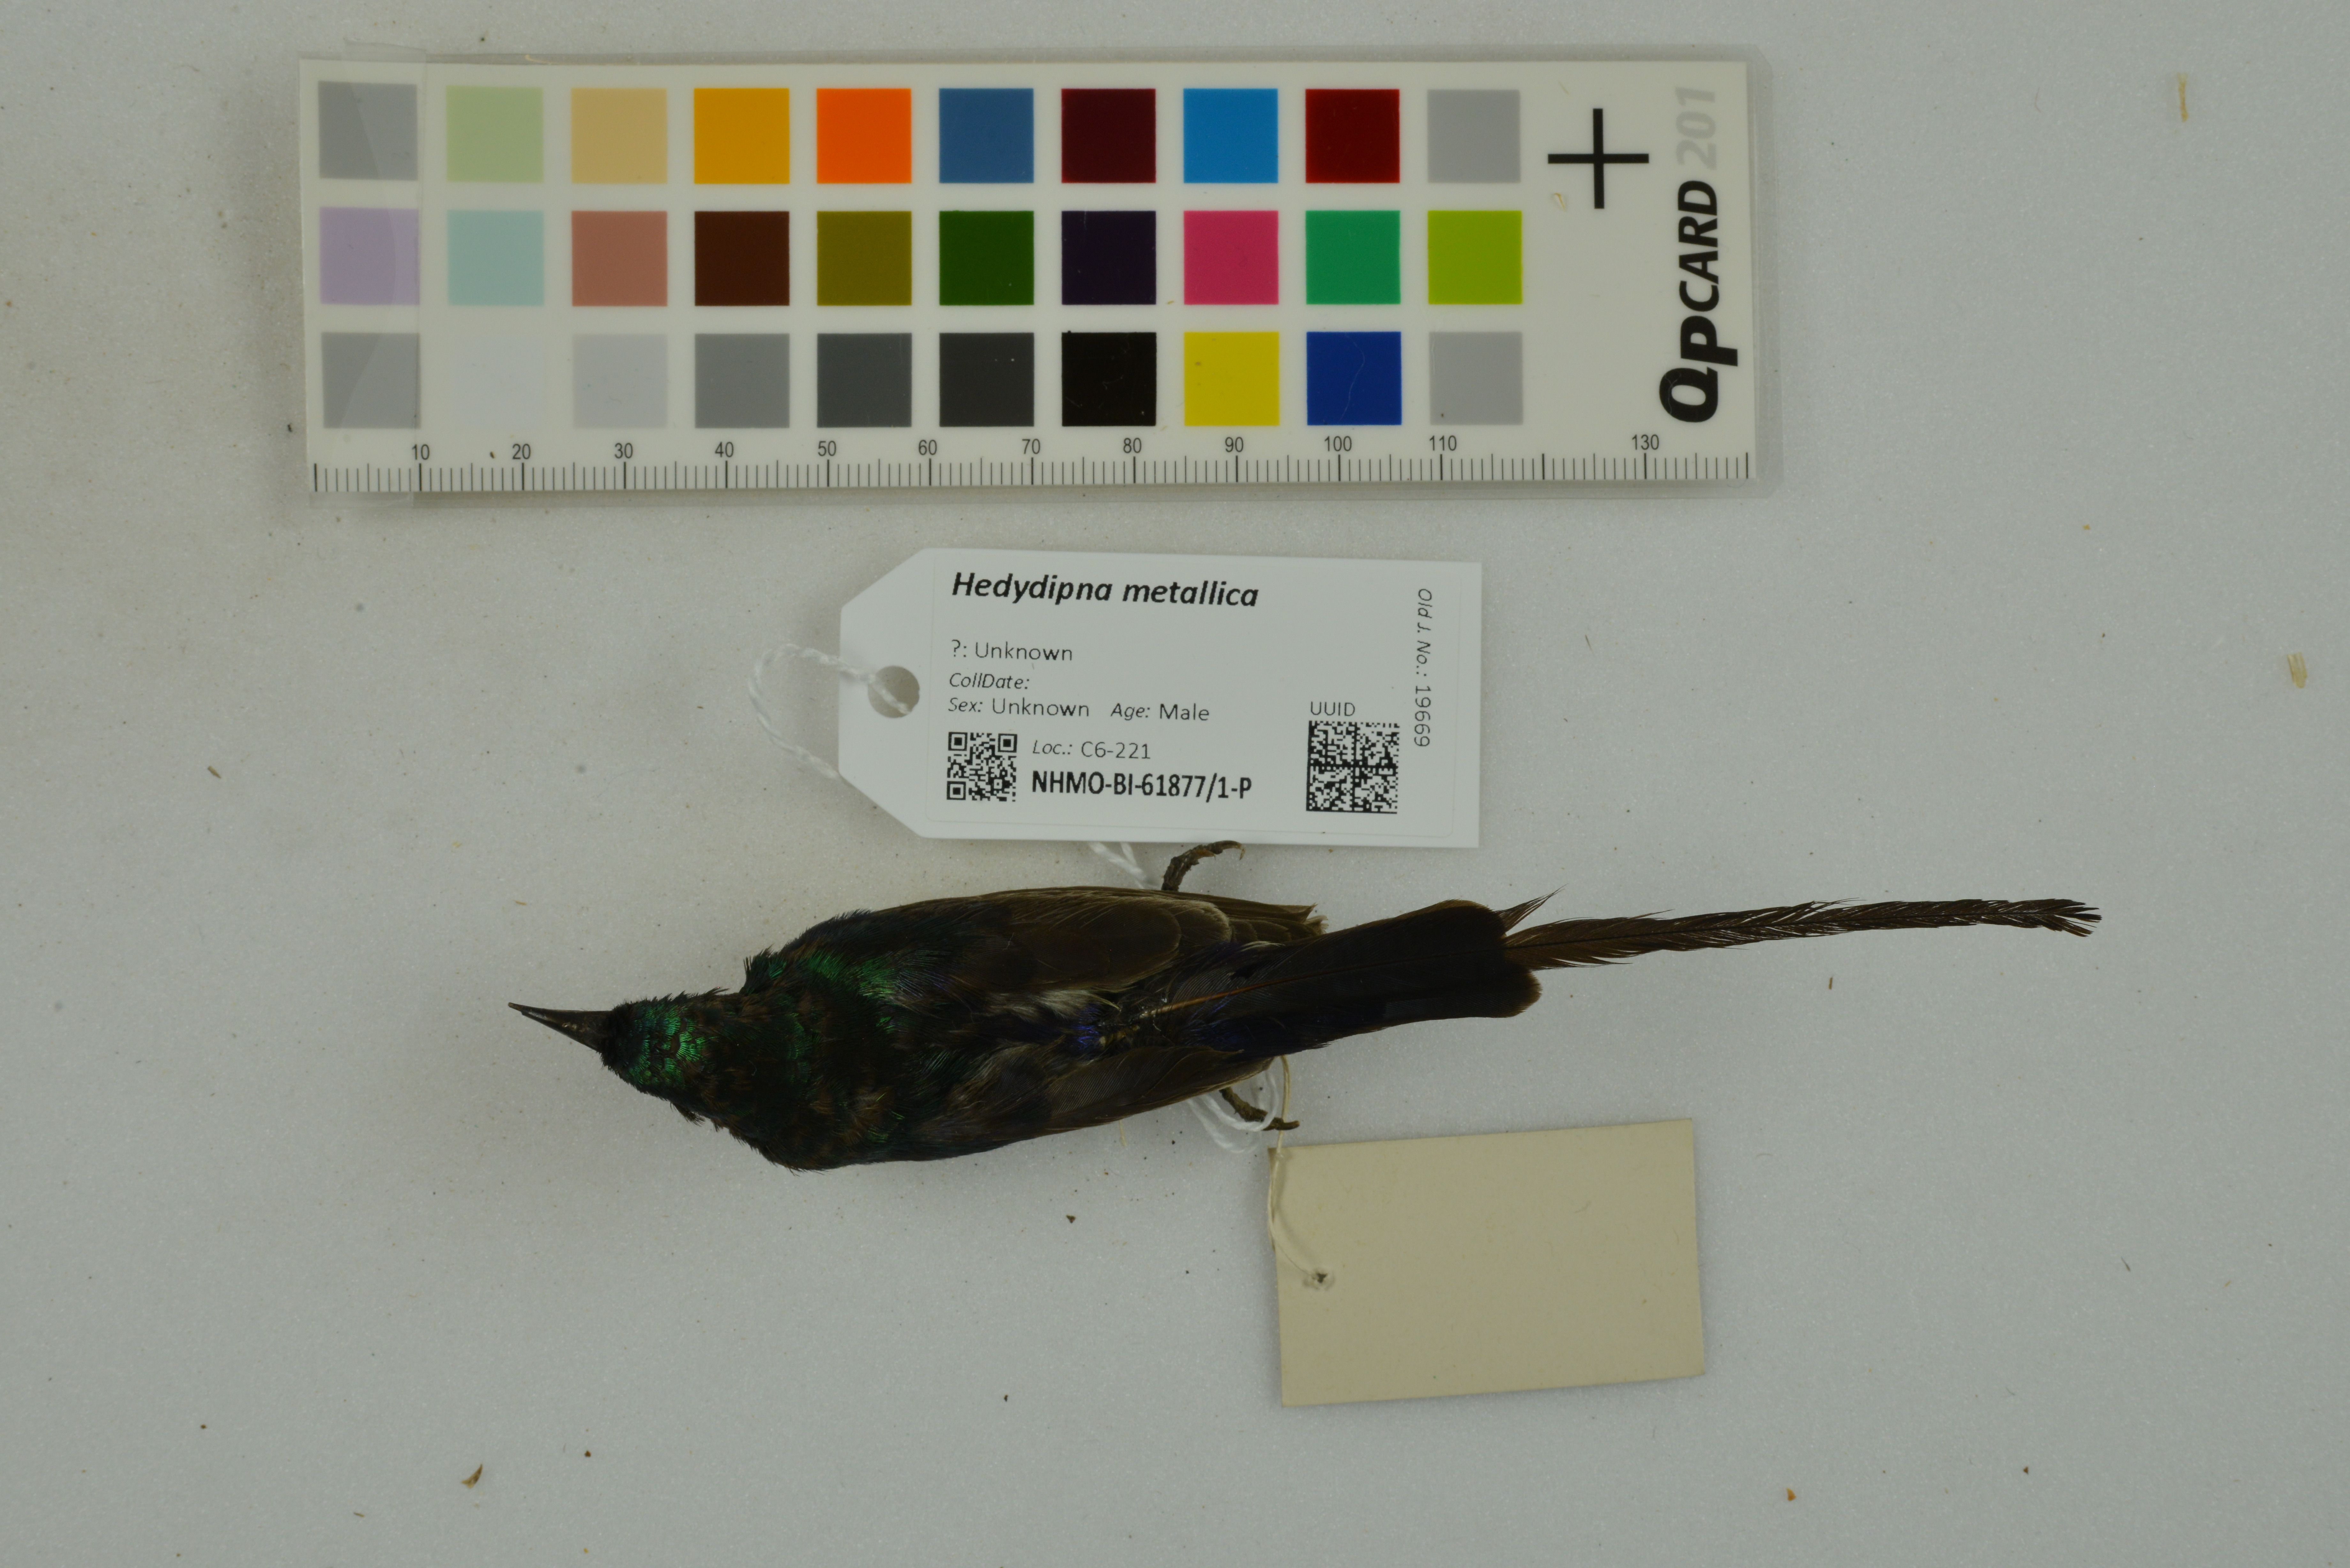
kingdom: Animalia
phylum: Chordata
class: Aves
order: Passeriformes
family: Nectariniidae
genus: Hedydipna
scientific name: Hedydipna metallica
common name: Nile valley sunbird
